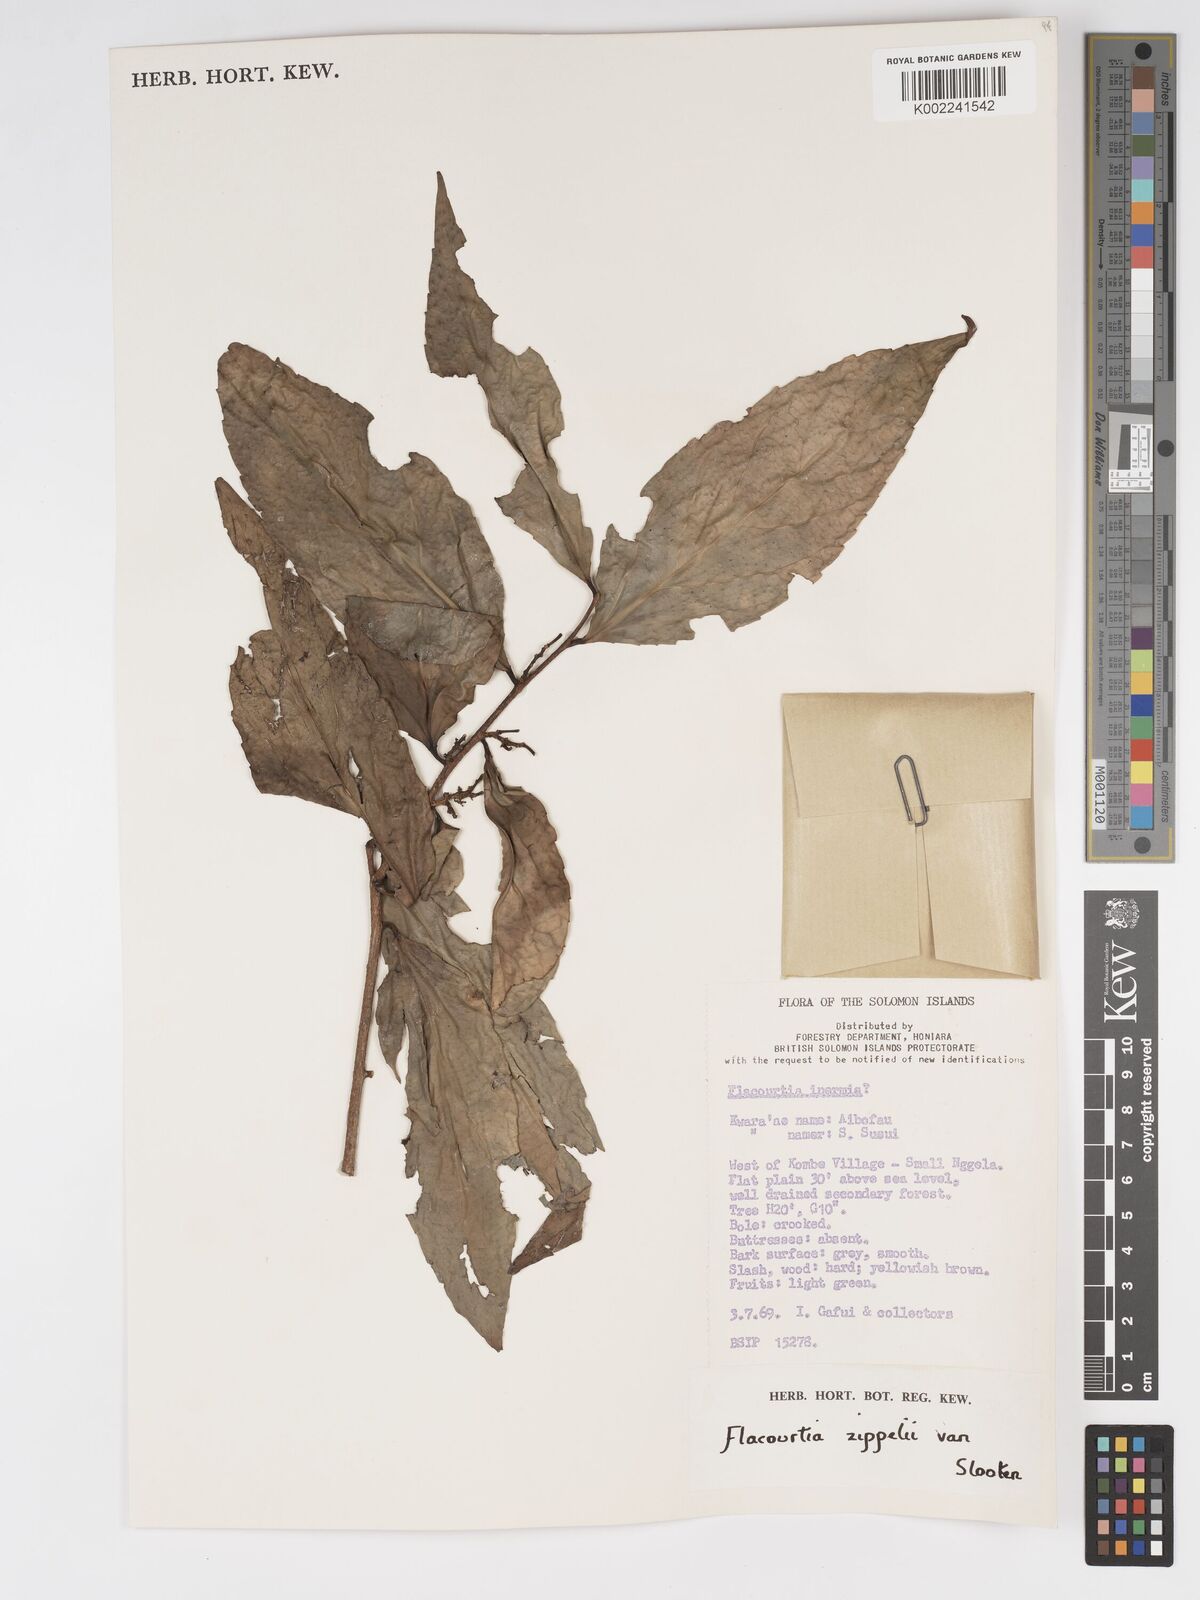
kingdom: Plantae
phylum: Tracheophyta
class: Magnoliopsida
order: Malpighiales
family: Salicaceae
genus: Flacourtia
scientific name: Flacourtia zippelii
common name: Zippeli plum
